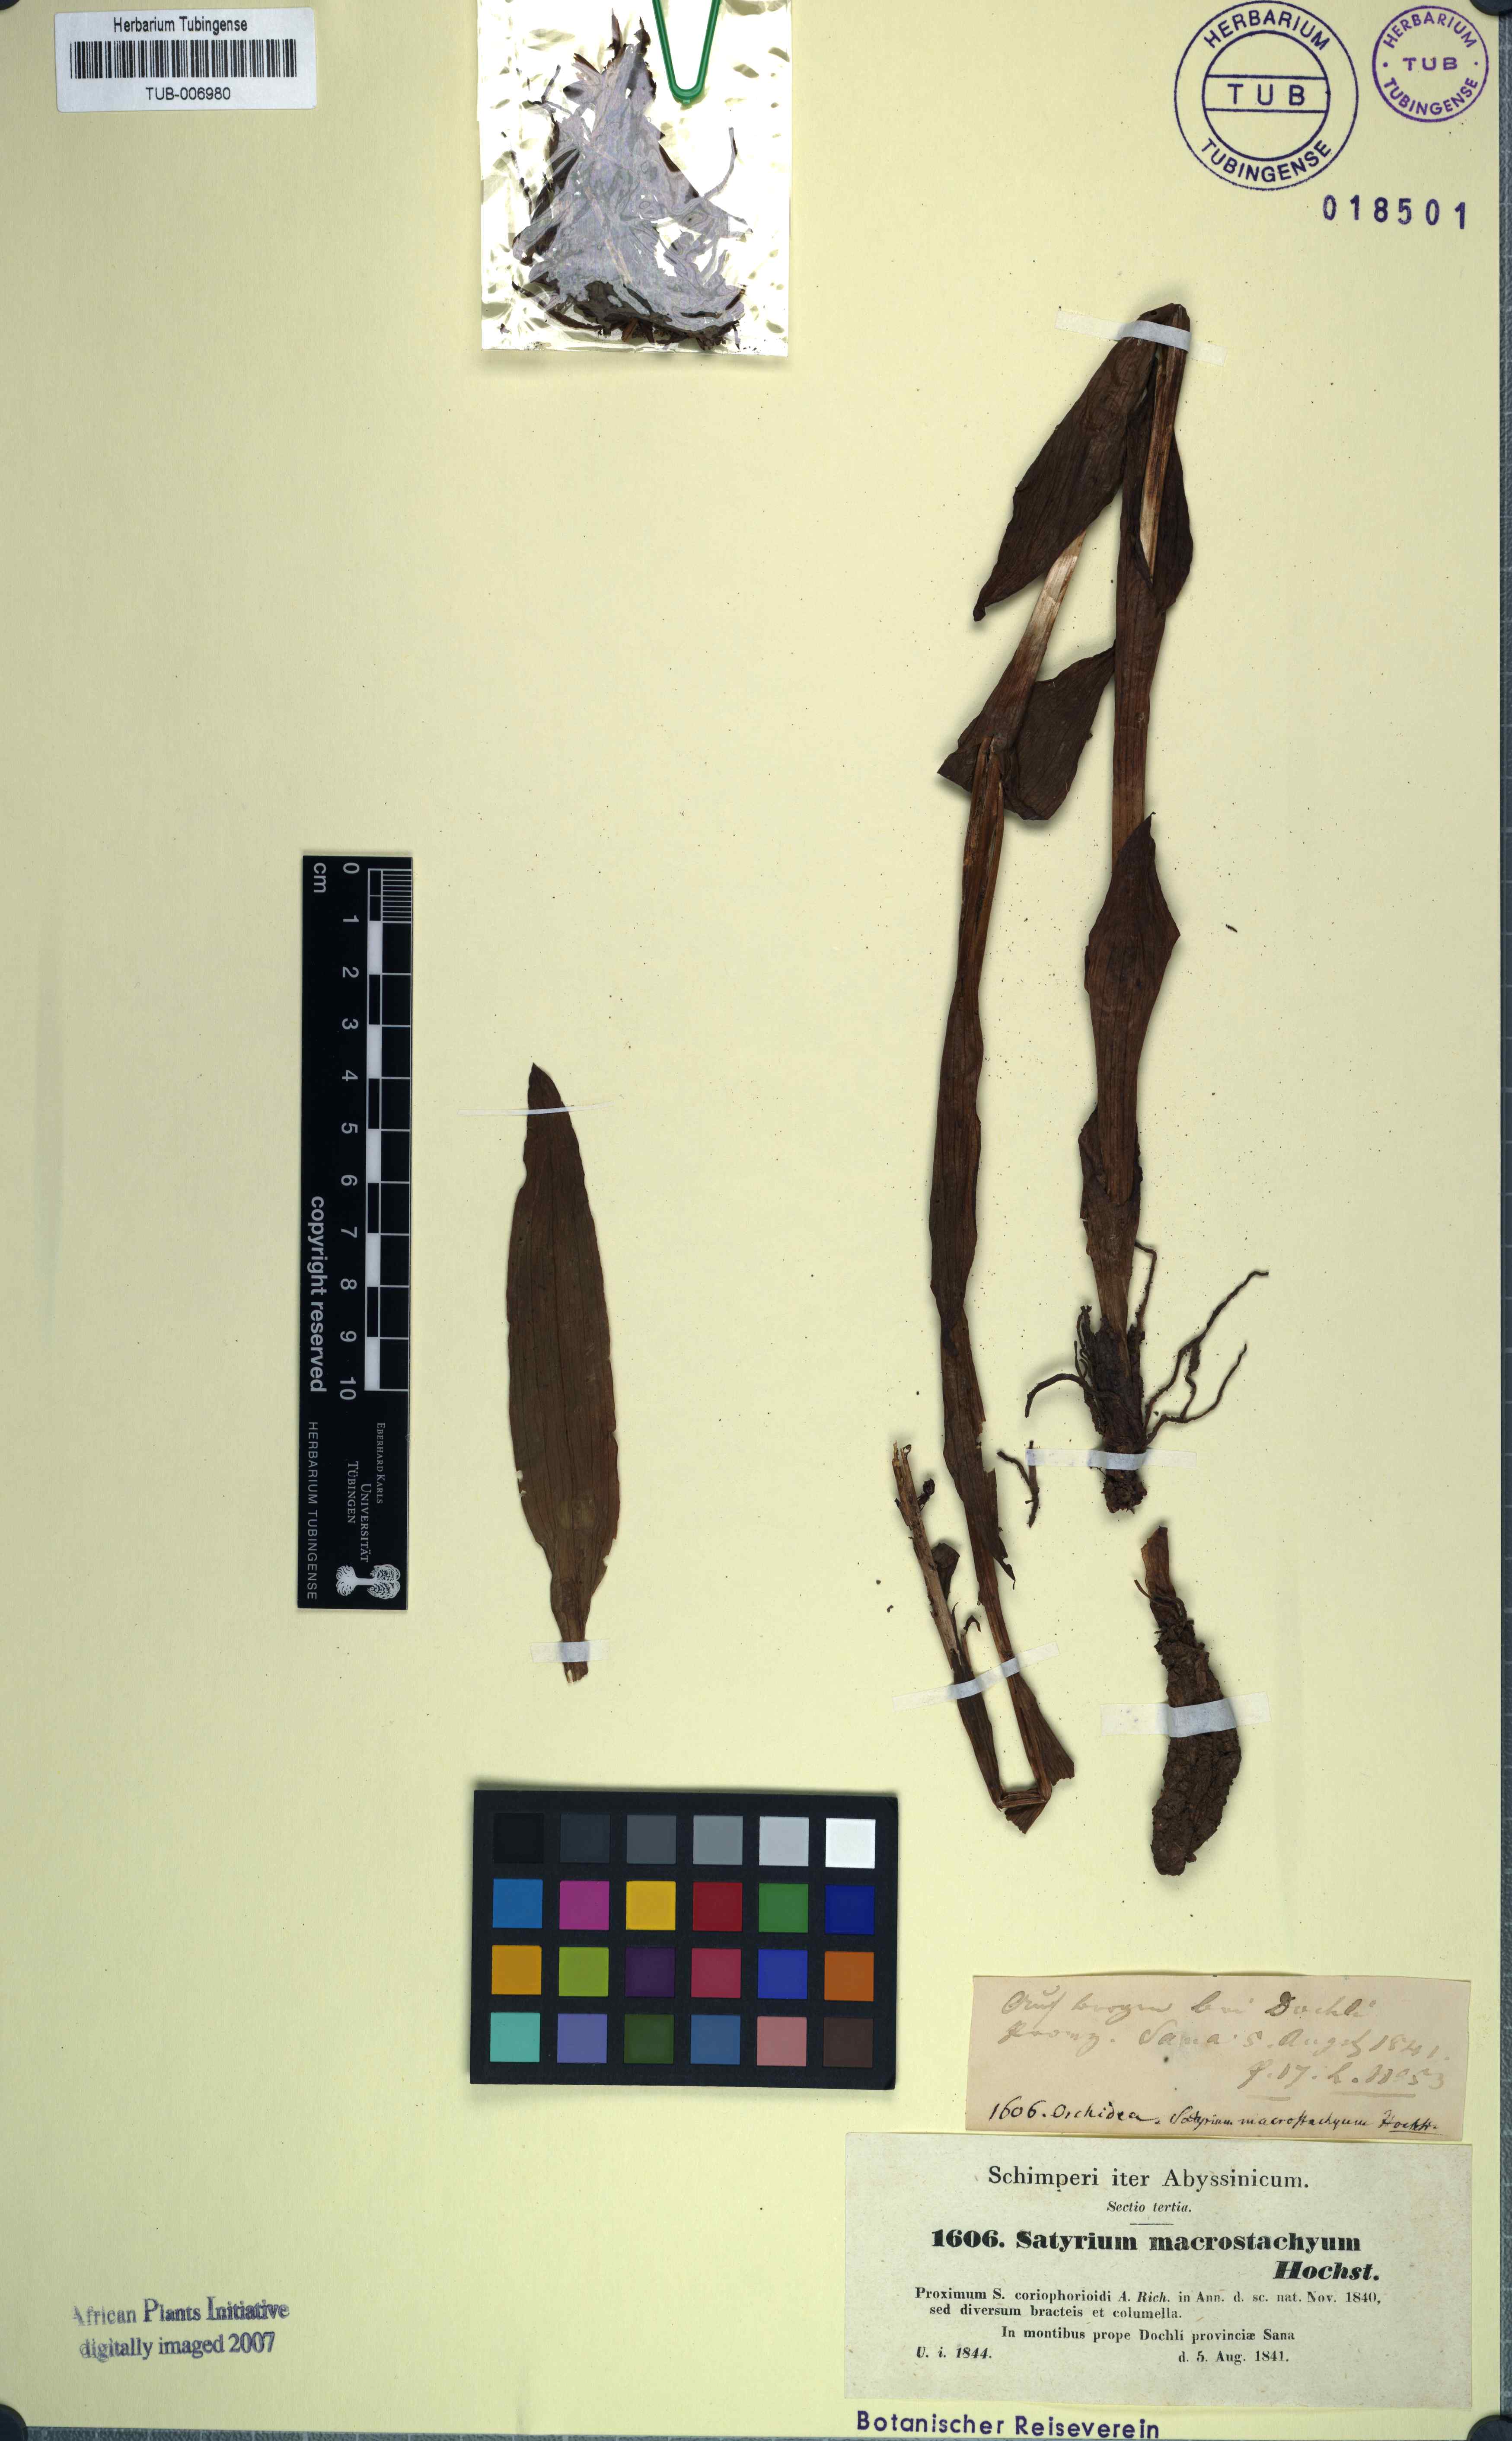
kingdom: Plantae
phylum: Tracheophyta
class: Liliopsida
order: Asparagales
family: Orchidaceae
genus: Satyrium
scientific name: Satyrium coriophoroides
